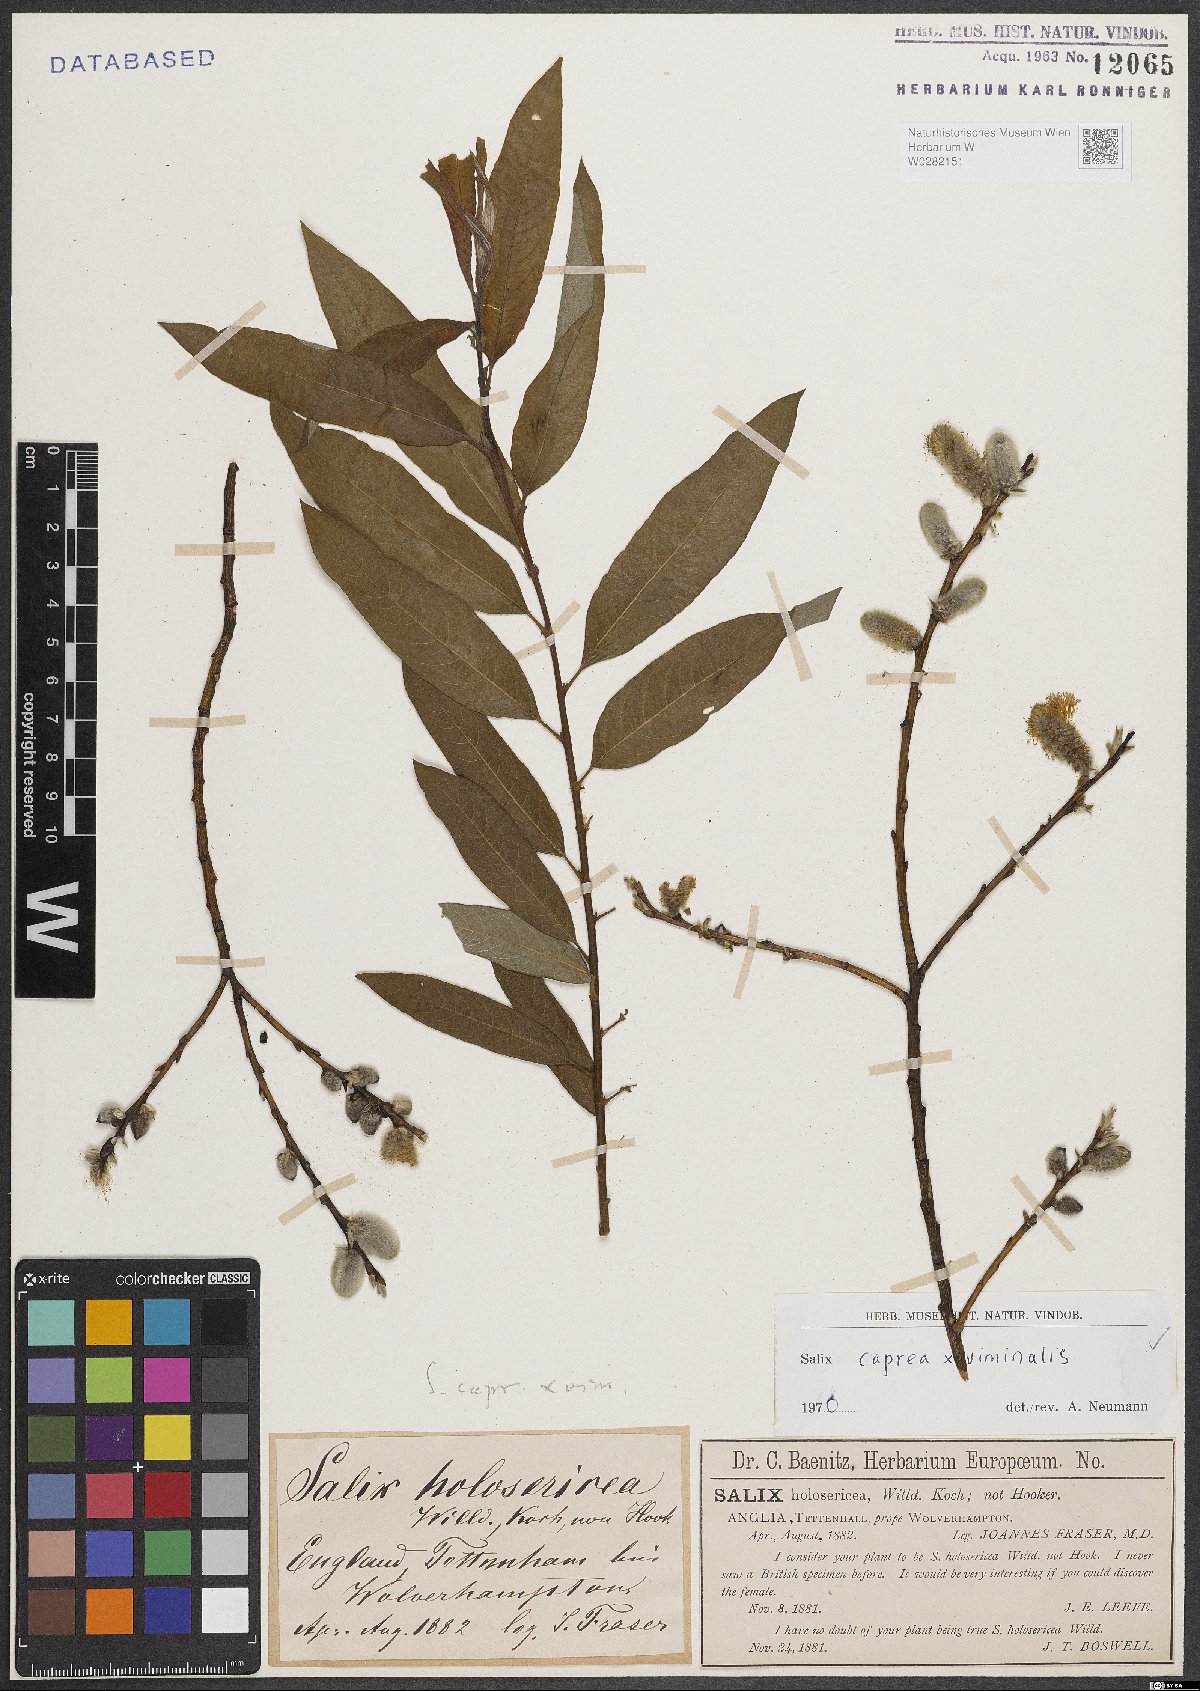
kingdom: Plantae
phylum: Tracheophyta
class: Magnoliopsida
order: Malpighiales
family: Salicaceae
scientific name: Salicaceae
